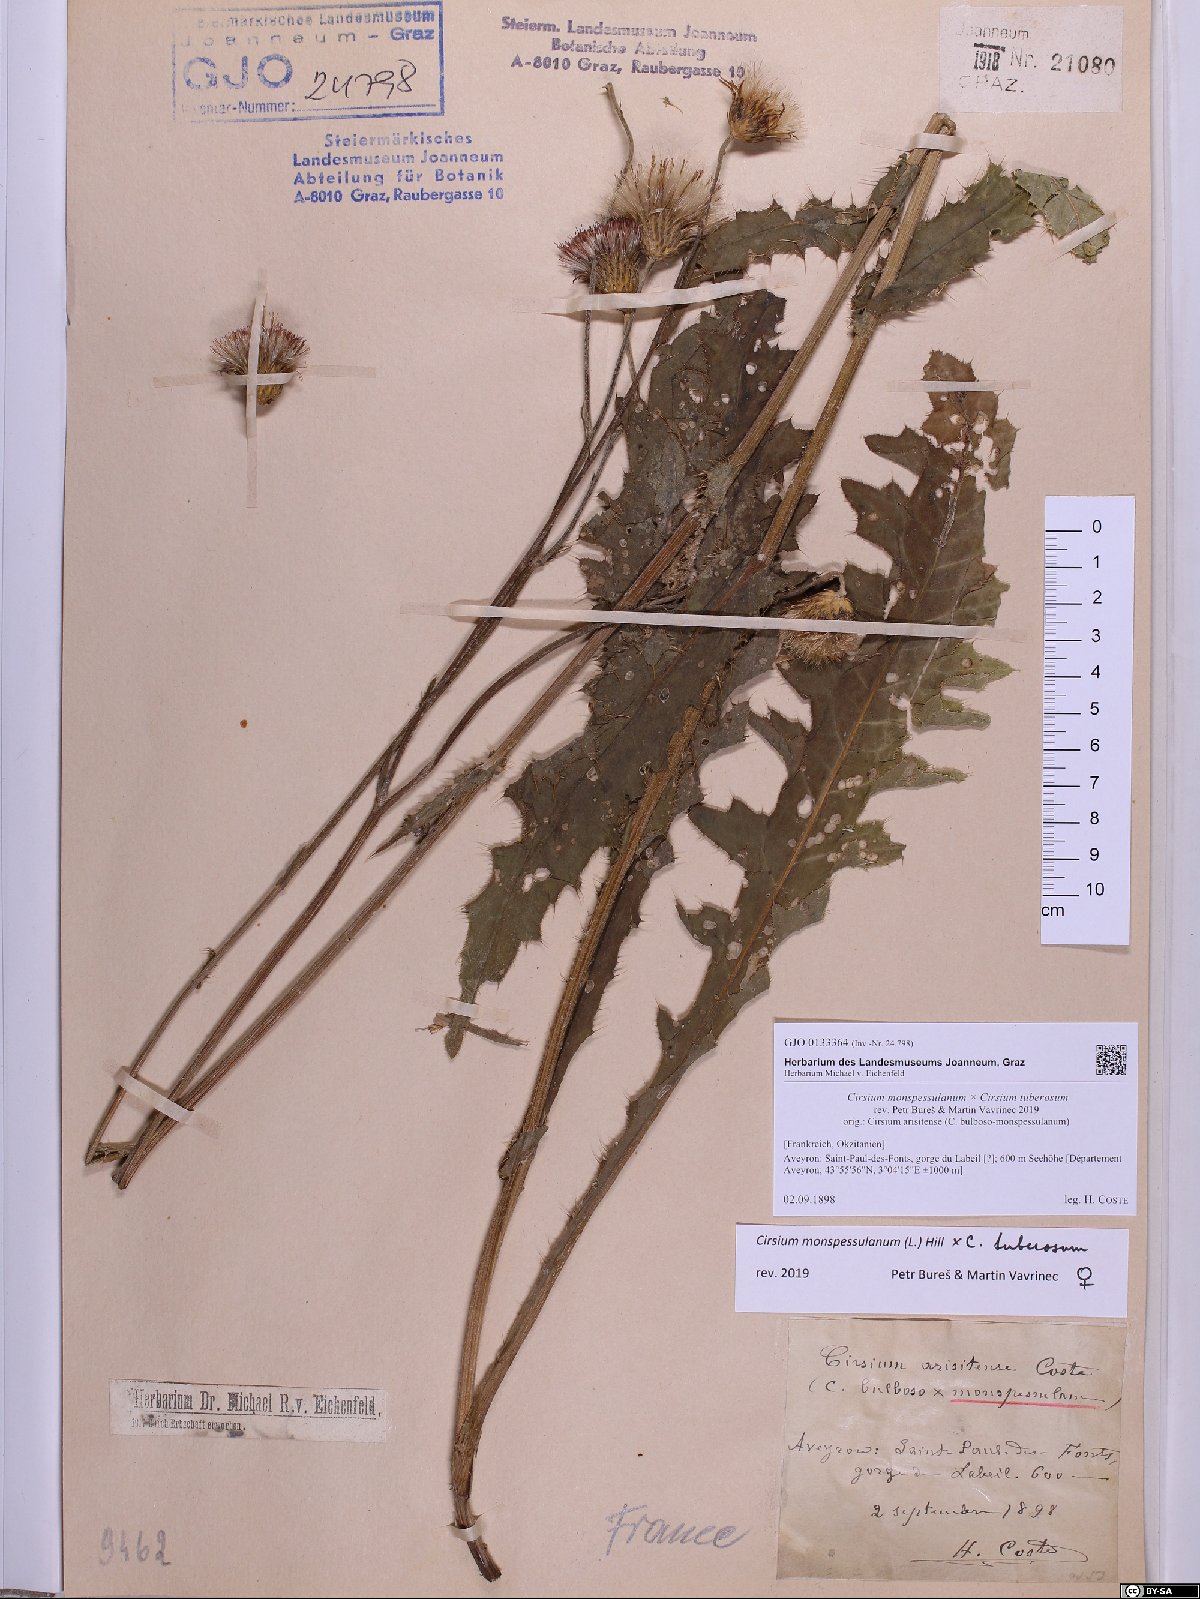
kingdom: Plantae
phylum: Tracheophyta
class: Magnoliopsida
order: Asterales
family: Asteraceae
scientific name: Asteraceae
